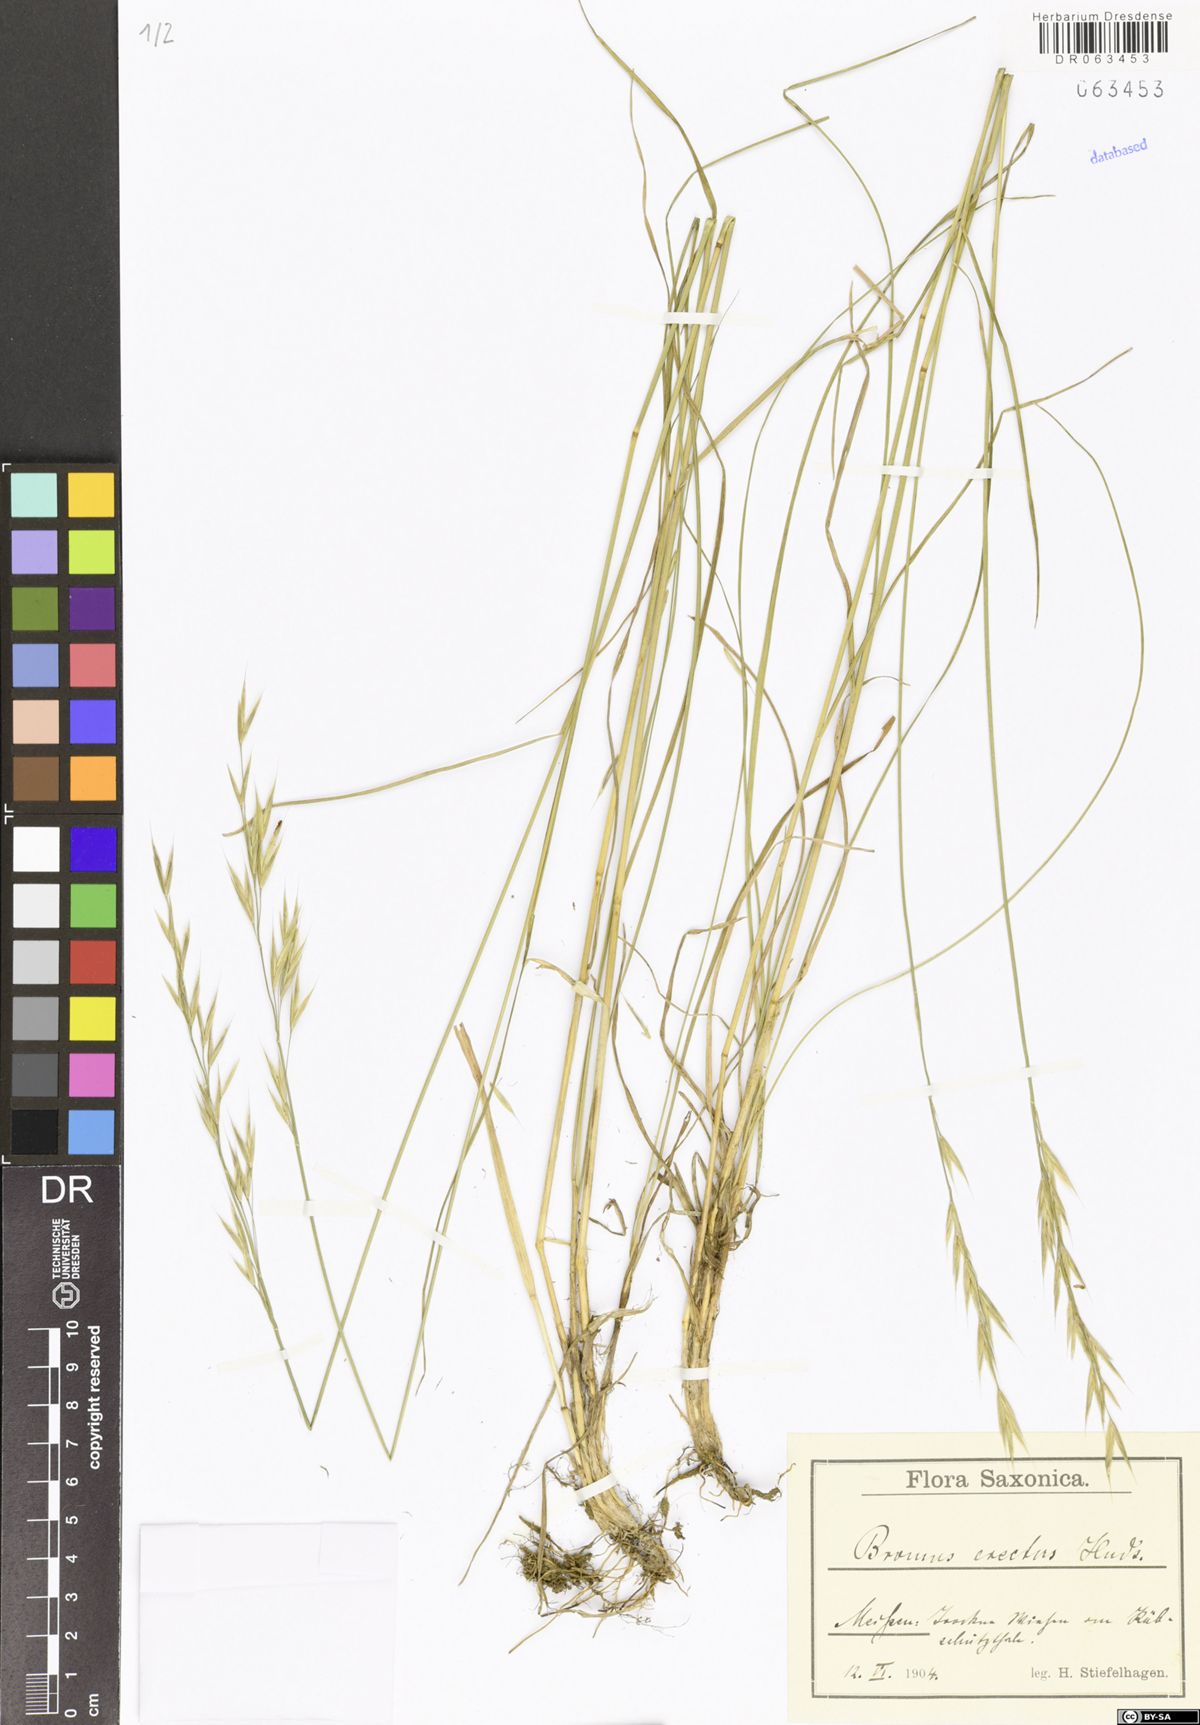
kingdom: Plantae
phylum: Tracheophyta
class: Liliopsida
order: Poales
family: Poaceae
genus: Bromus
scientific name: Bromus erectus
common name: Erect brome
